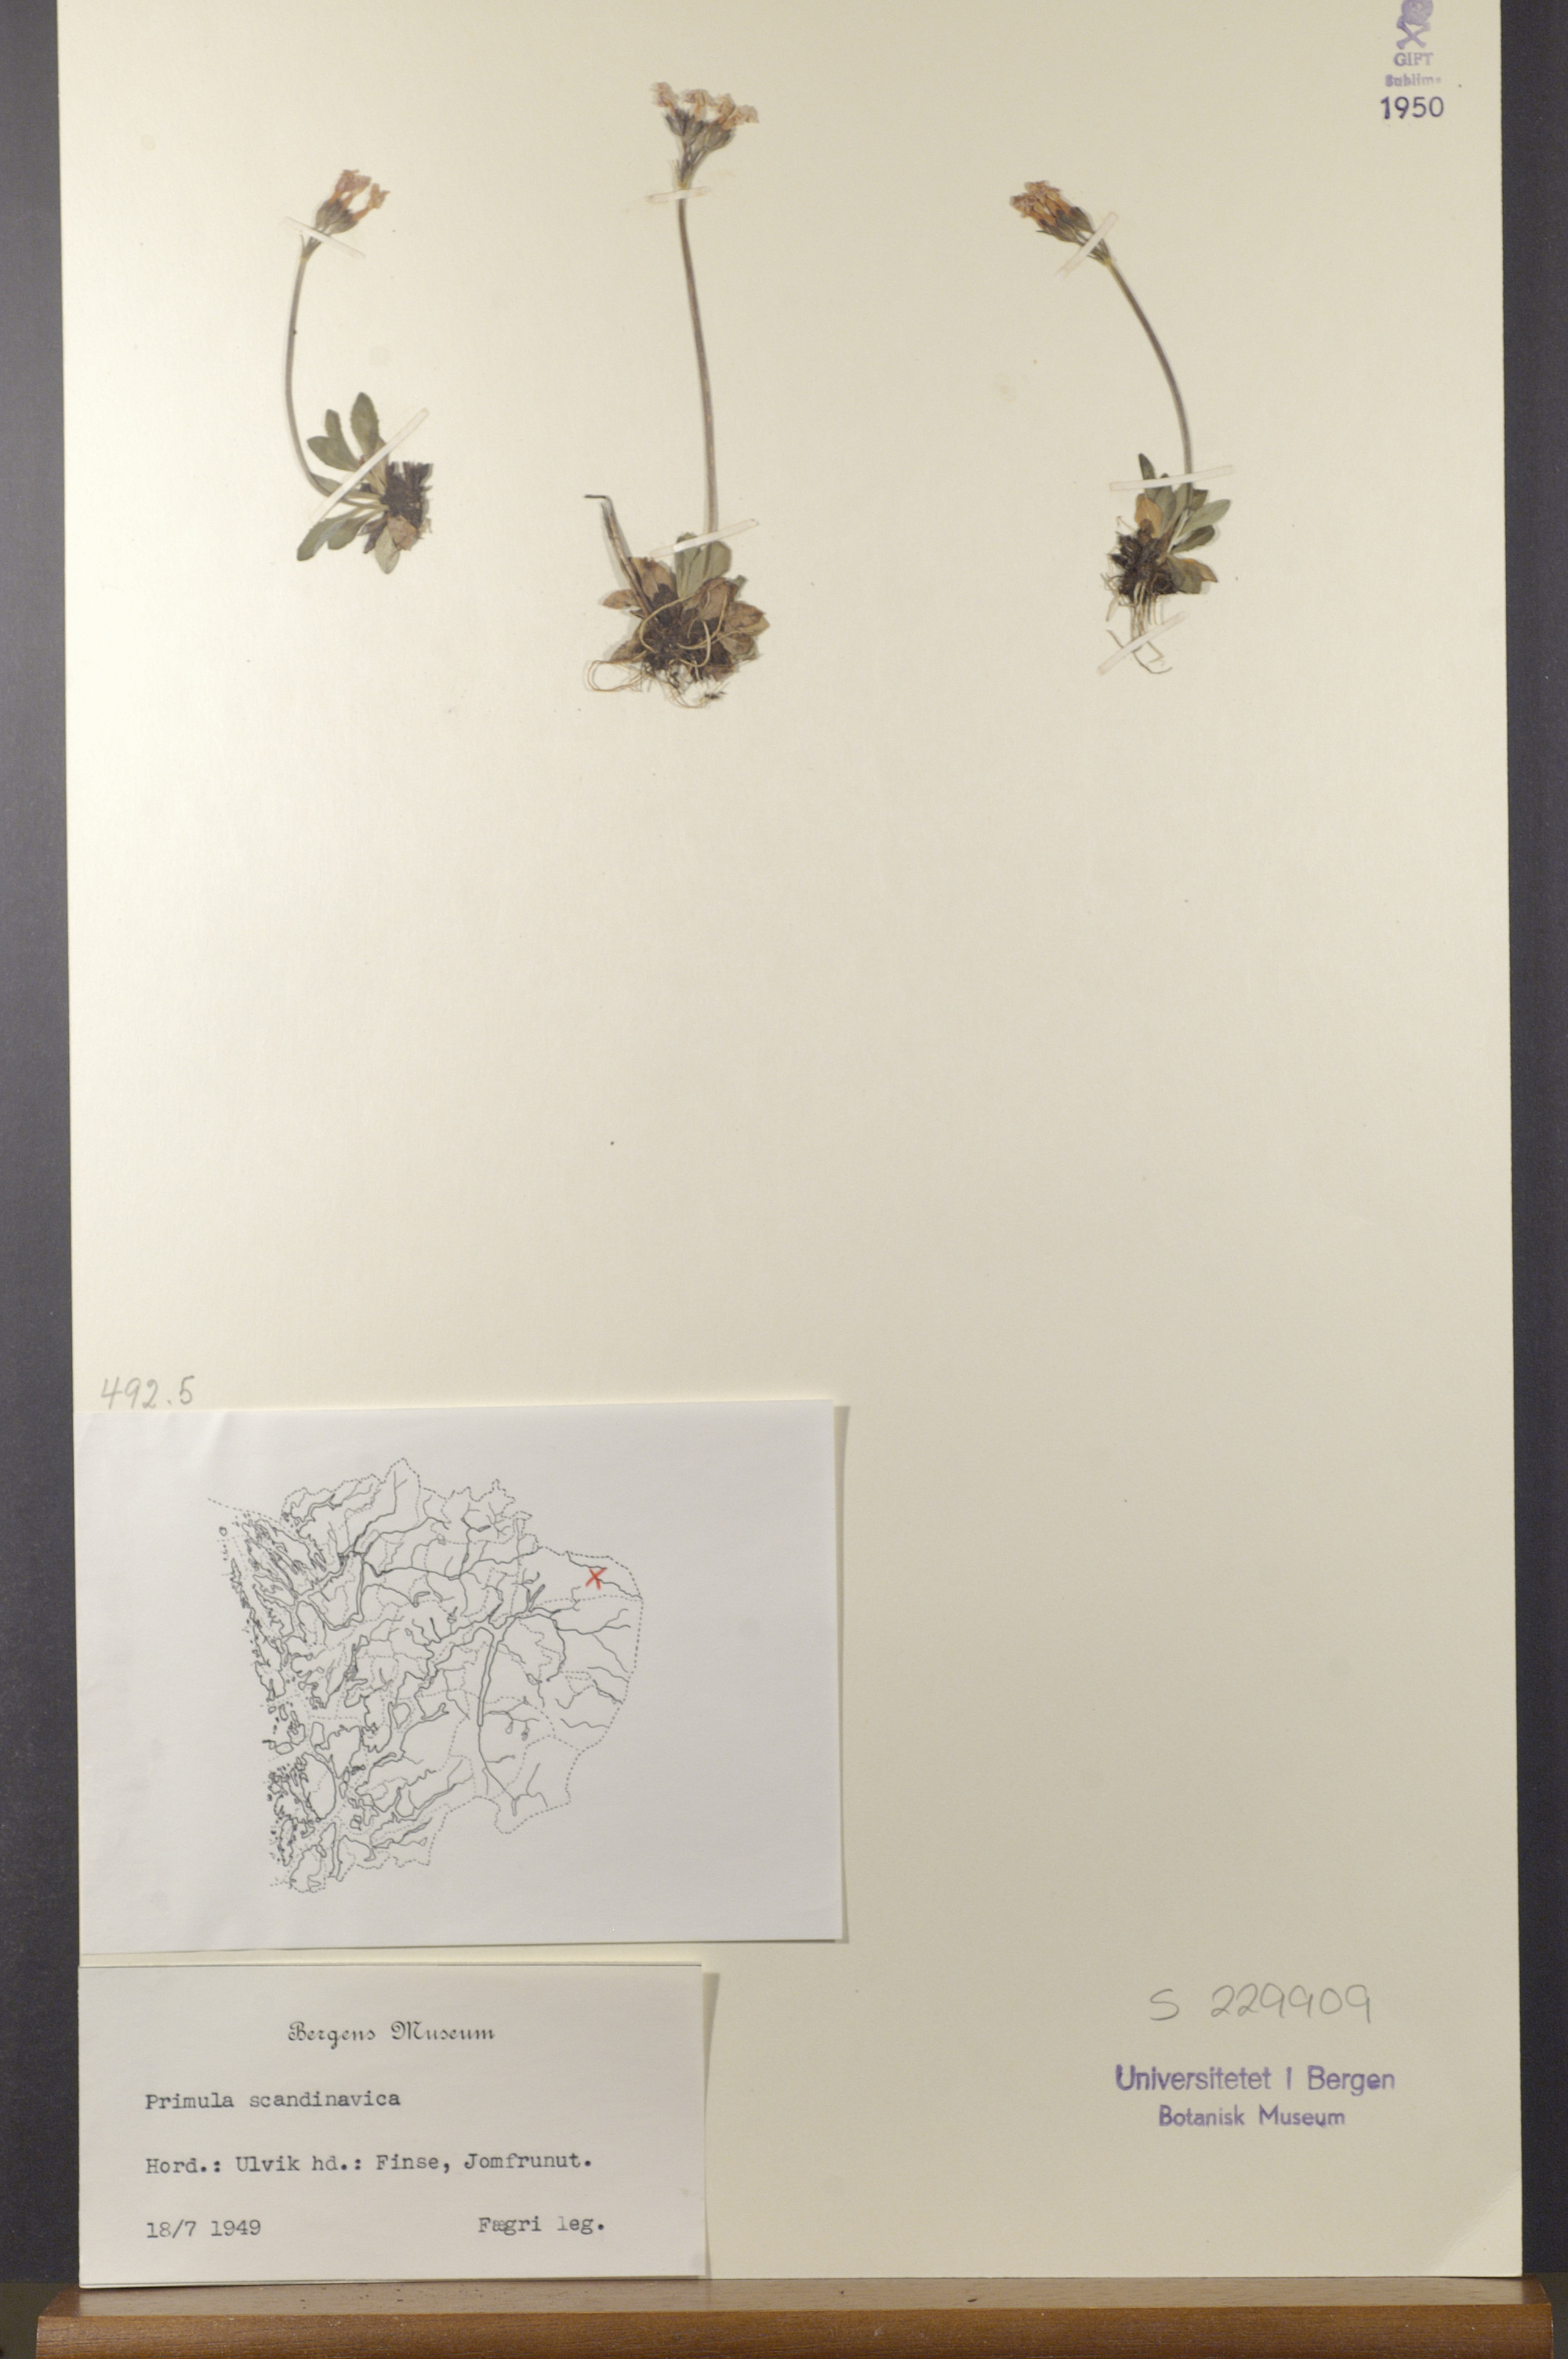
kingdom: Plantae
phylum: Tracheophyta
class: Magnoliopsida
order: Ericales
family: Primulaceae
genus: Primula
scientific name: Primula scandinavica
